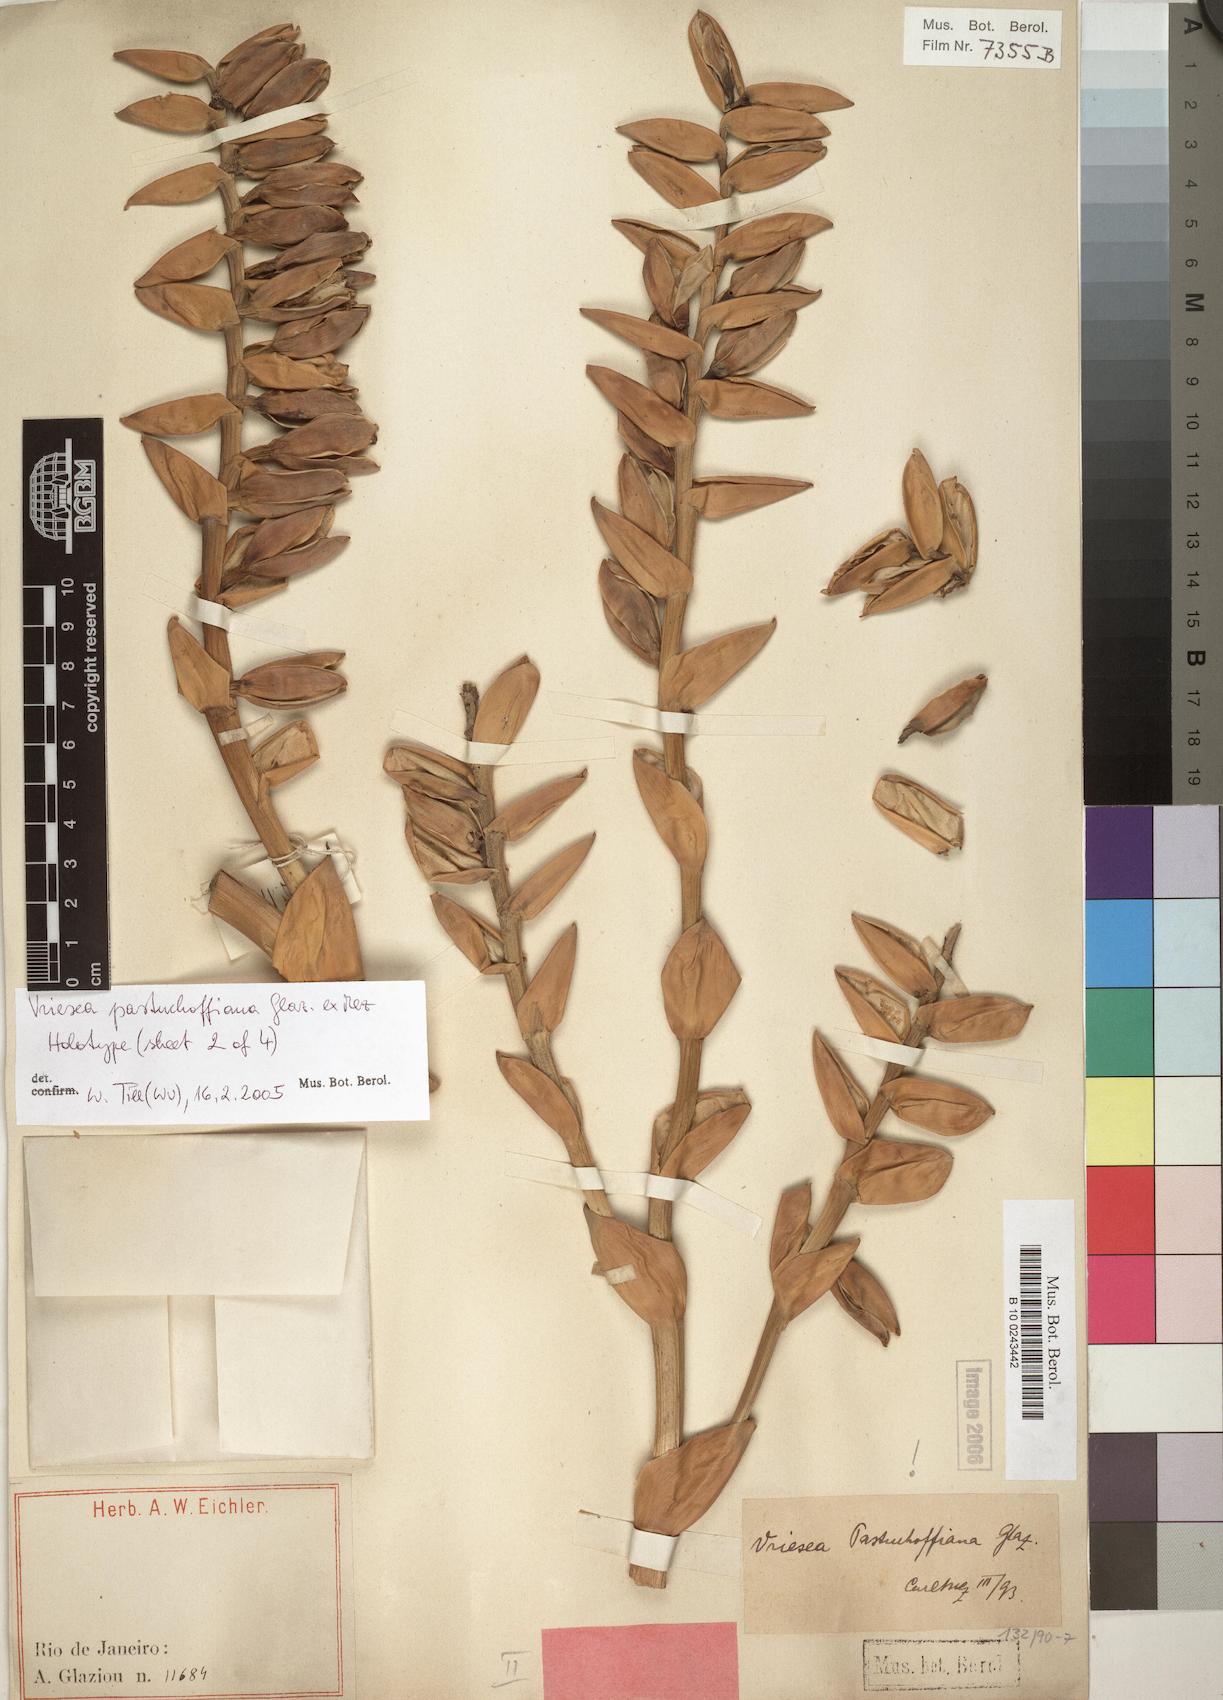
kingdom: Plantae
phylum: Tracheophyta
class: Liliopsida
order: Poales
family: Bromeliaceae
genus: Vriesea
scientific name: Vriesea pastuchoffiana
